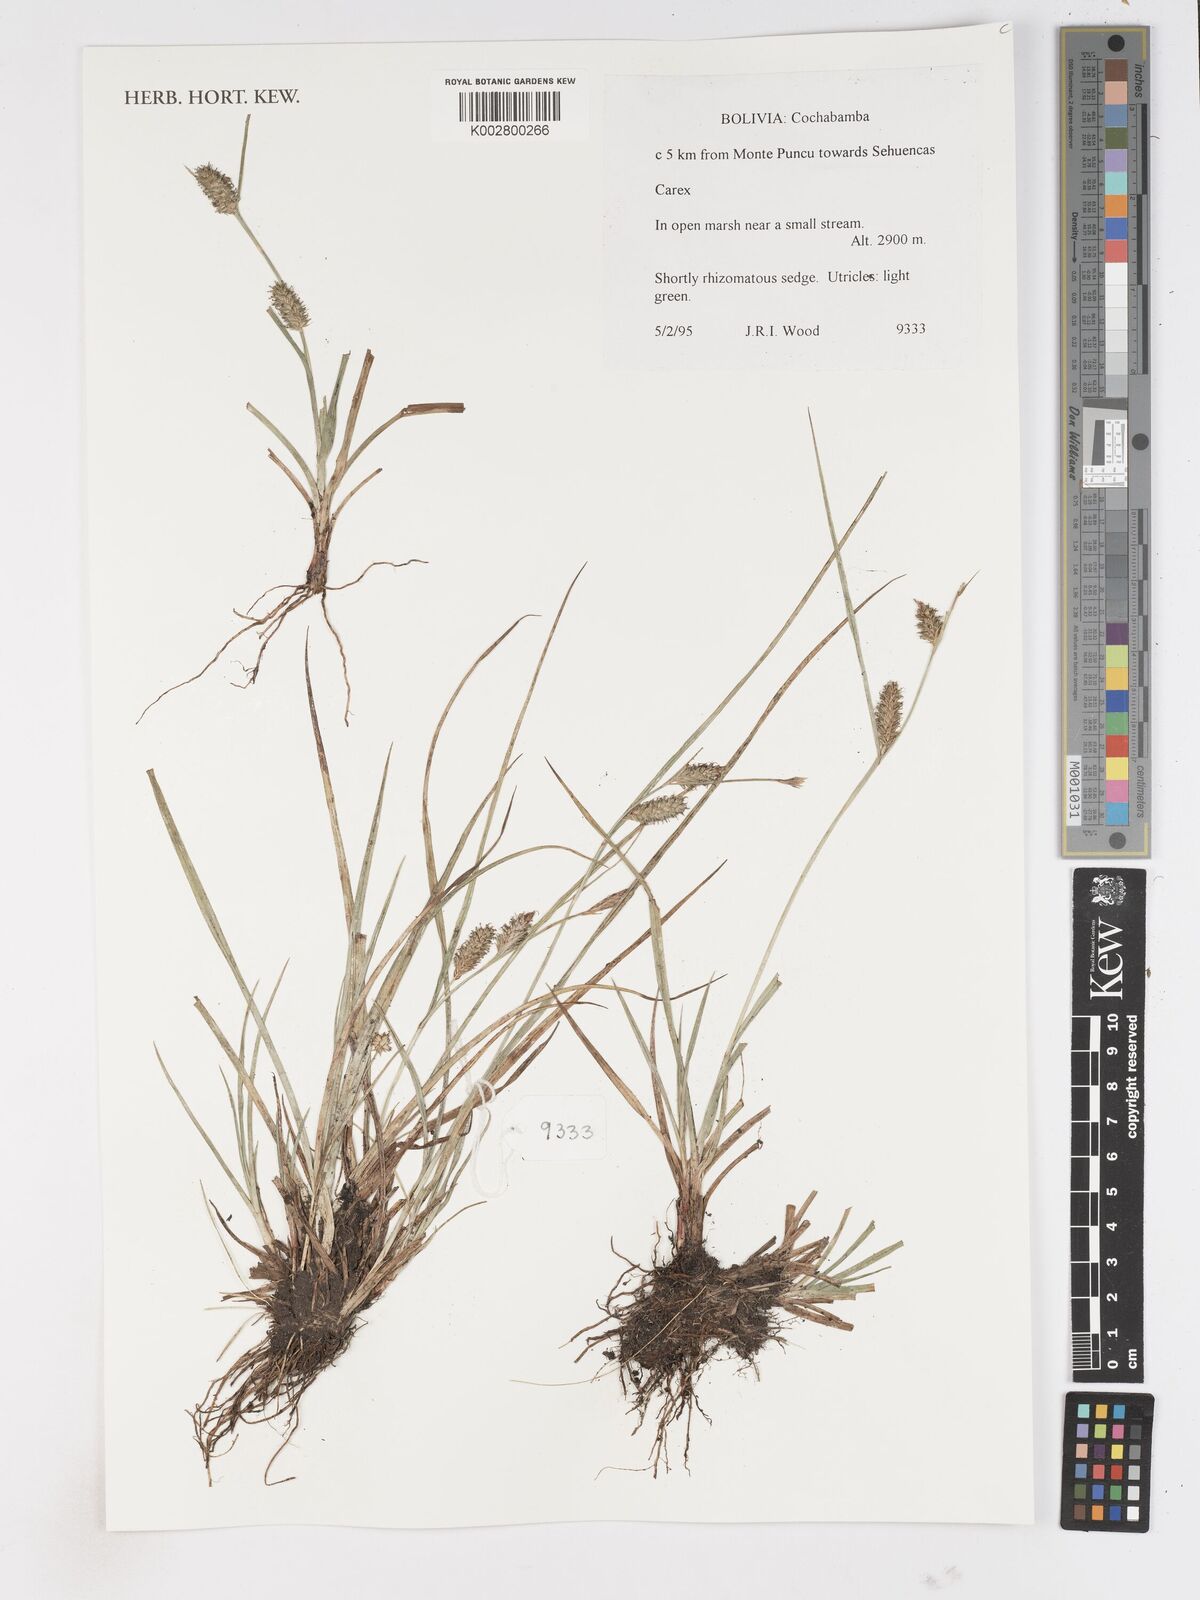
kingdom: Plantae
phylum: Tracheophyta
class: Liliopsida
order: Poales
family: Cyperaceae
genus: Carex
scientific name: Carex
